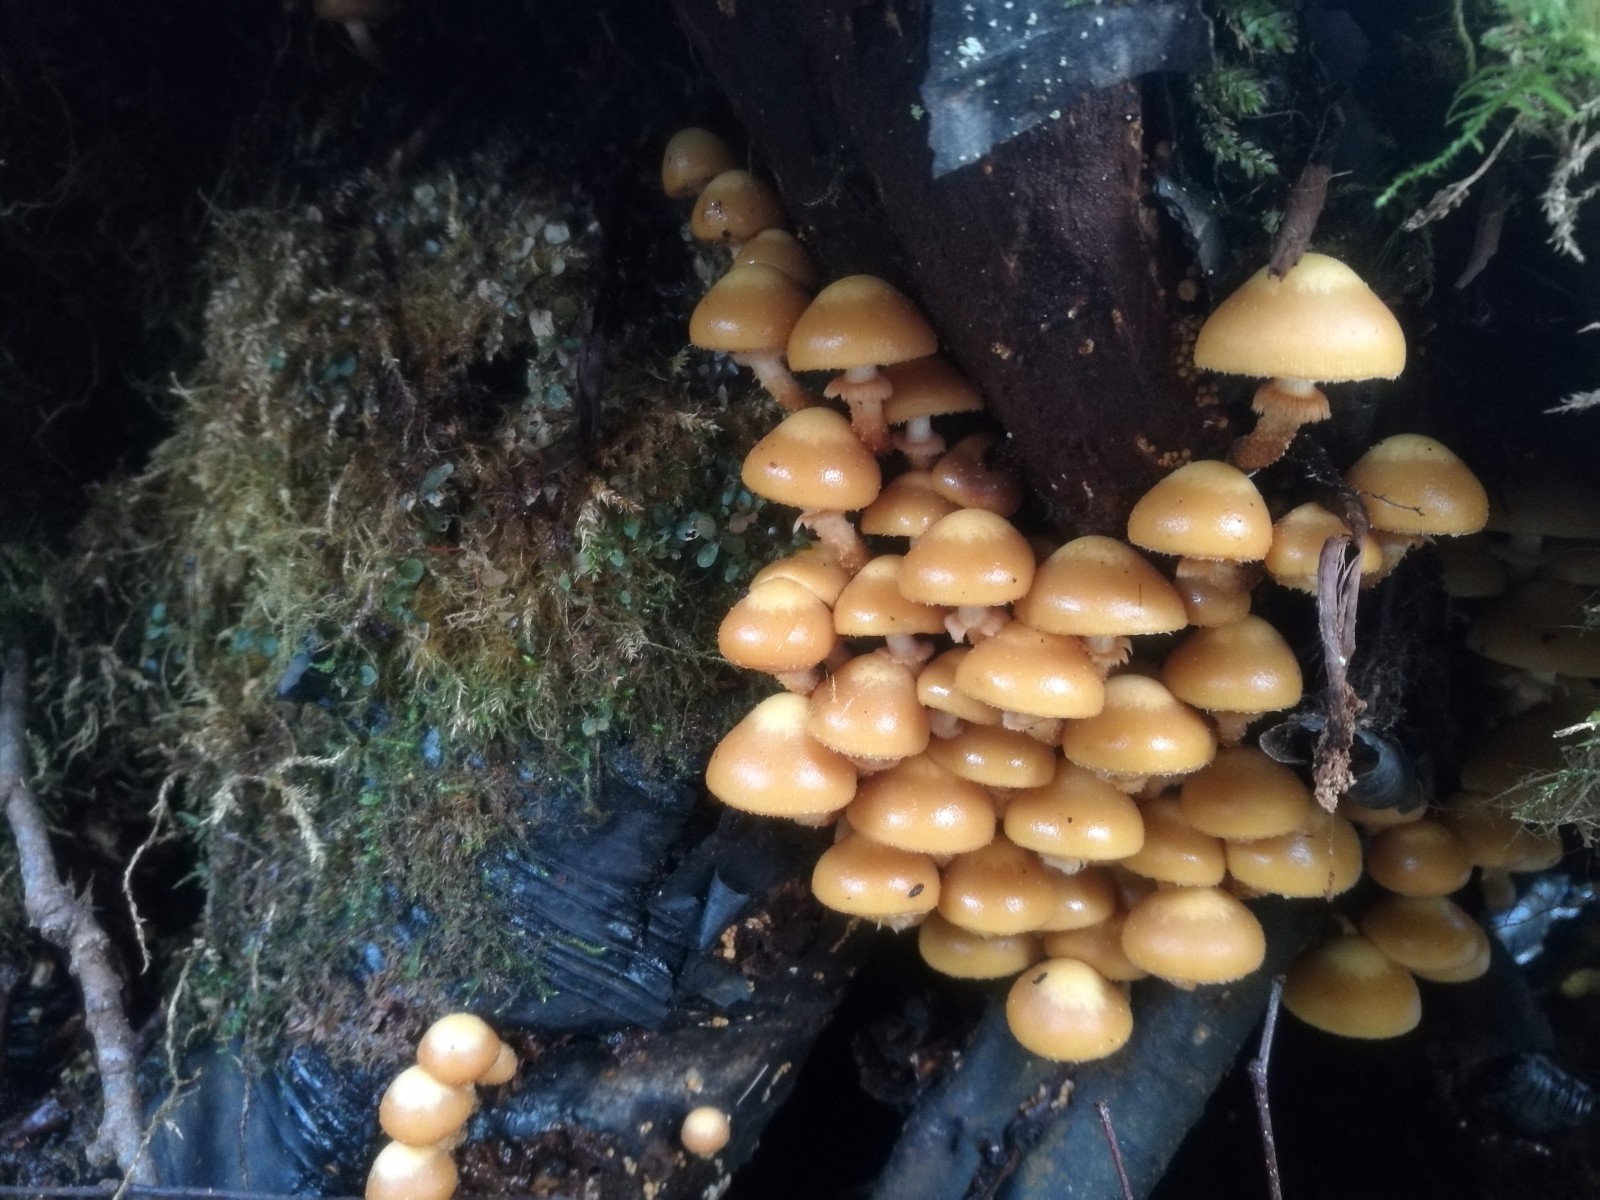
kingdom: Fungi
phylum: Basidiomycota
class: Agaricomycetes
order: Agaricales
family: Strophariaceae
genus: Kuehneromyces
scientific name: Kuehneromyces mutabilis
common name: foranderlig skælhat
